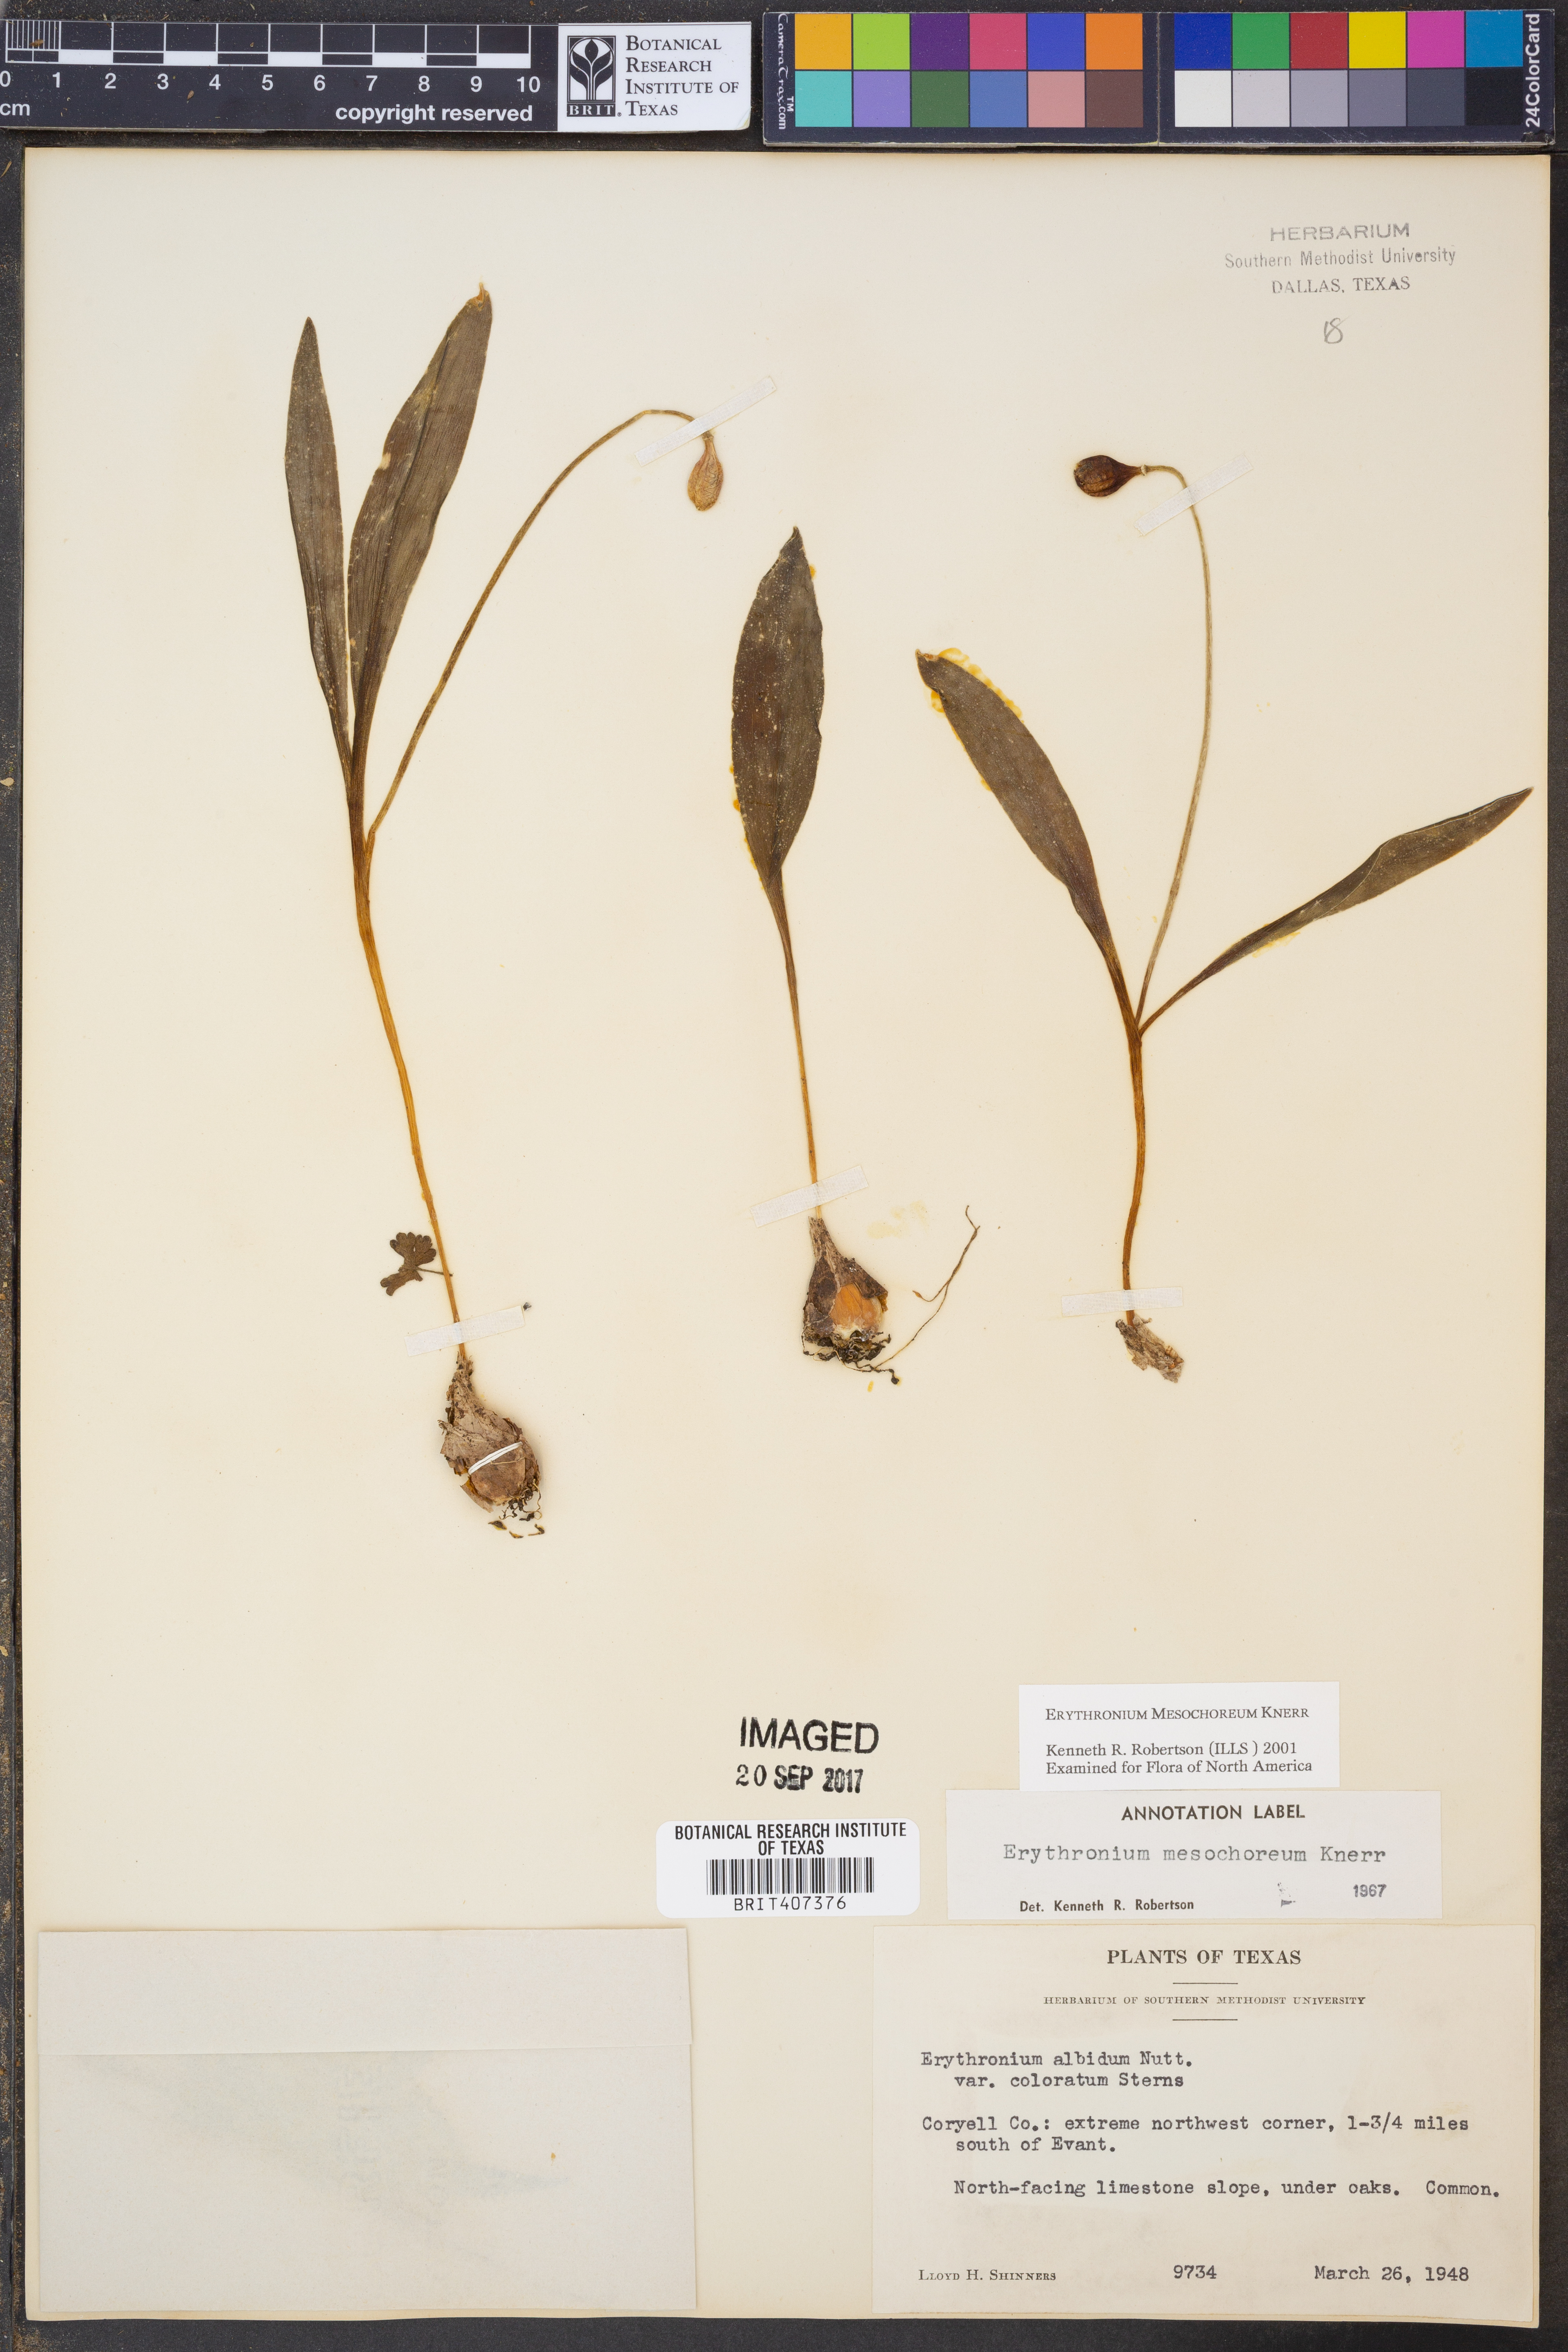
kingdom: Plantae
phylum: Tracheophyta
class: Liliopsida
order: Liliales
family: Liliaceae
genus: Erythronium
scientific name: Erythronium mesochoreum
